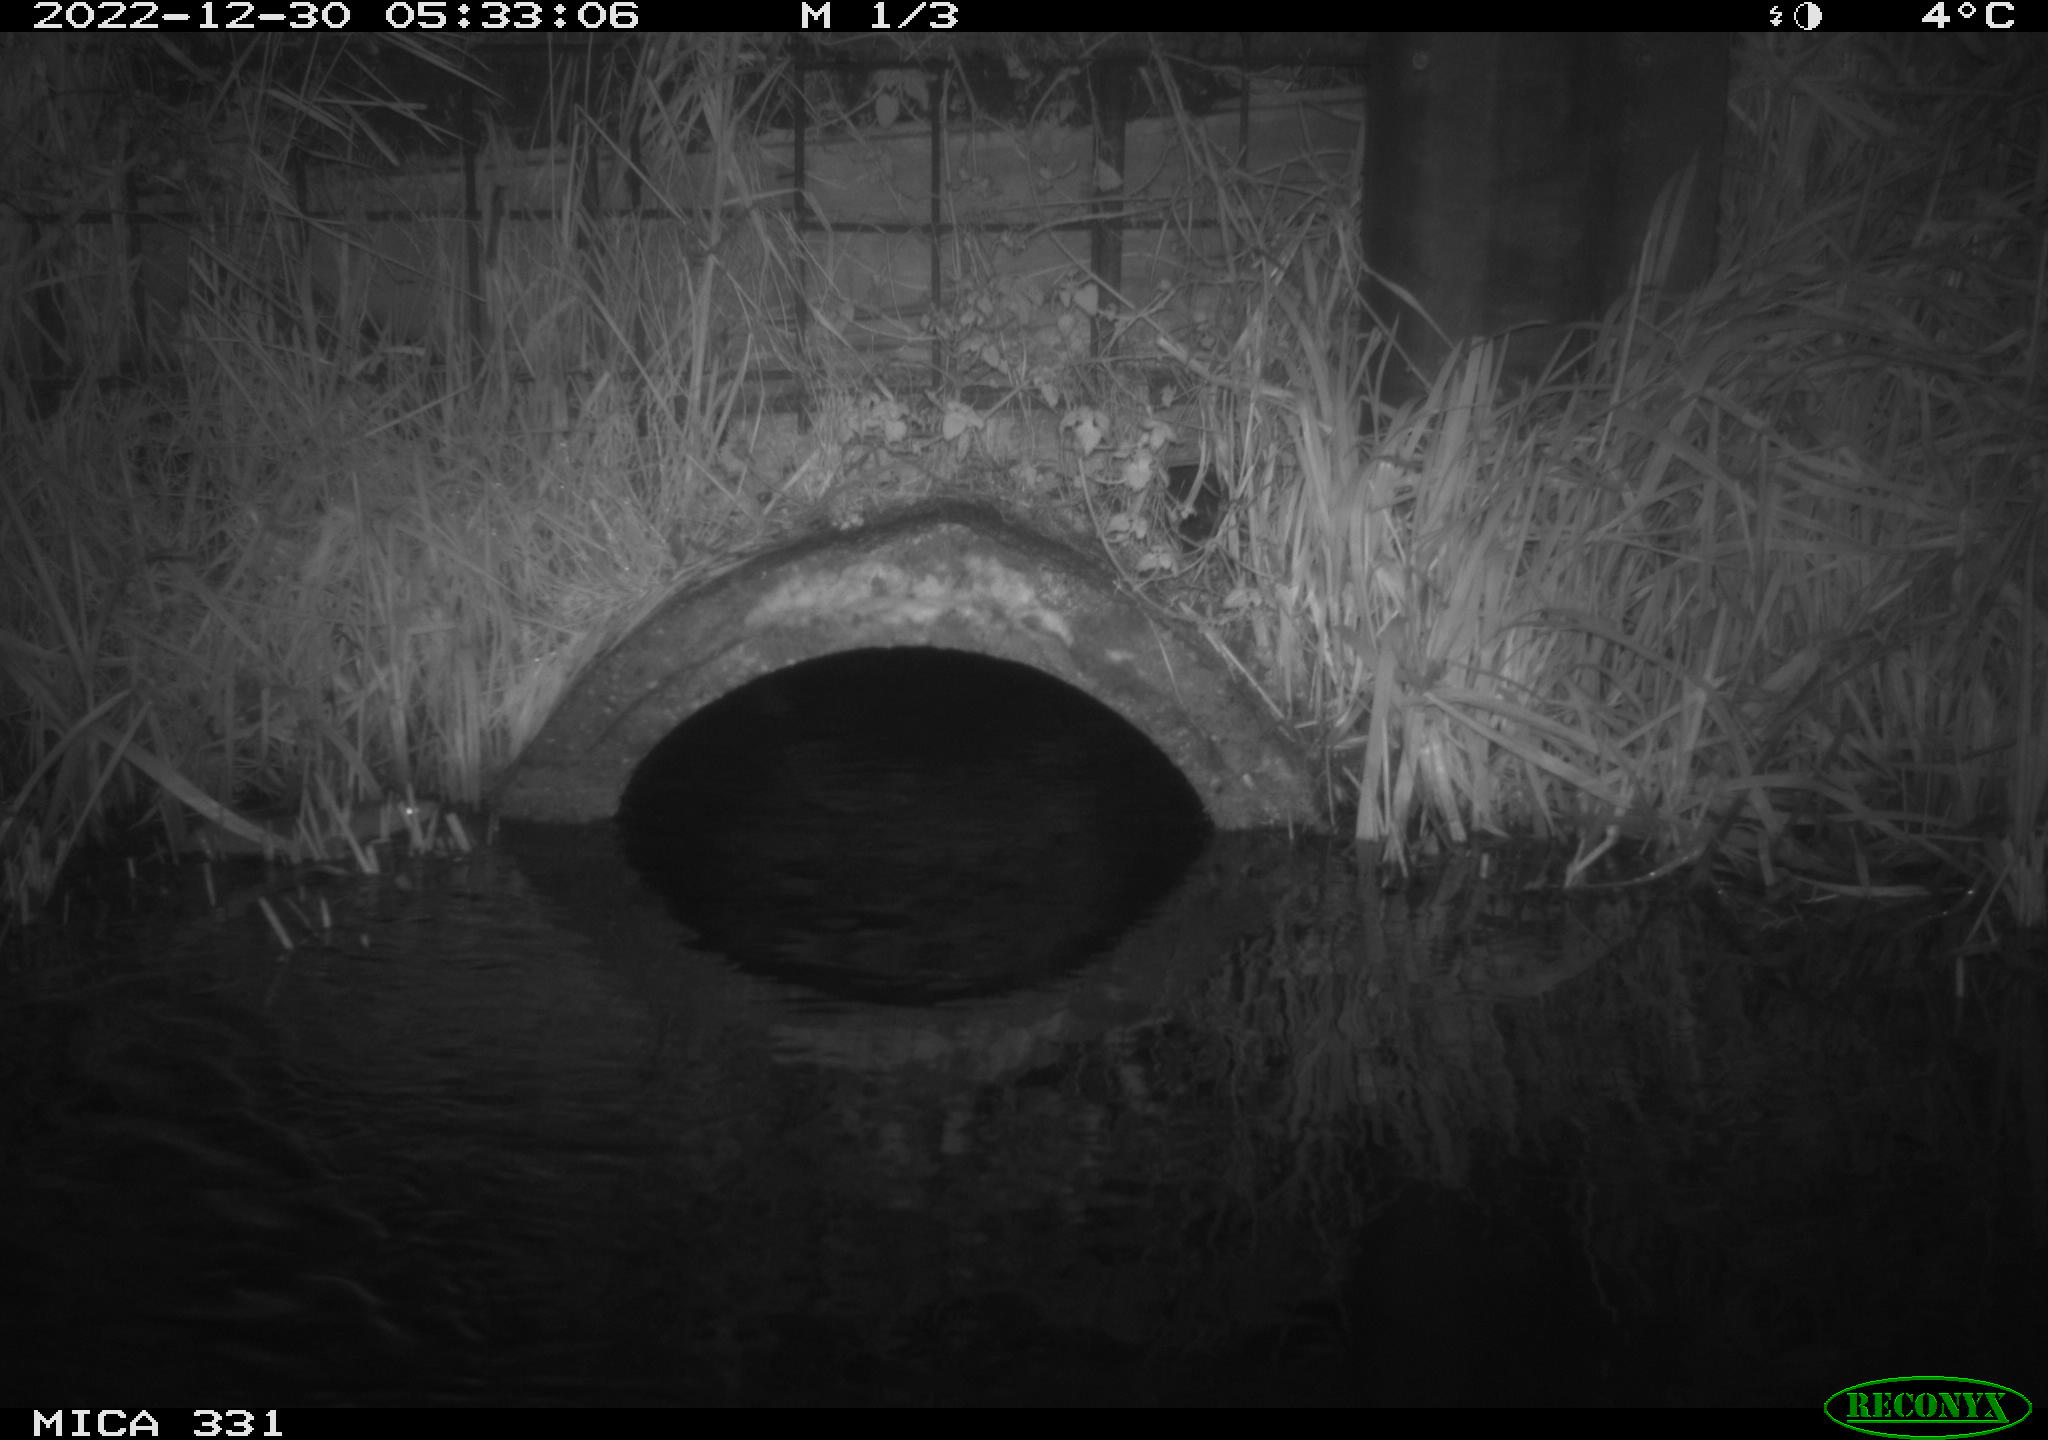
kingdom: Animalia
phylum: Chordata
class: Mammalia
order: Rodentia
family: Muridae
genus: Rattus
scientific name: Rattus norvegicus
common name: Brown rat
